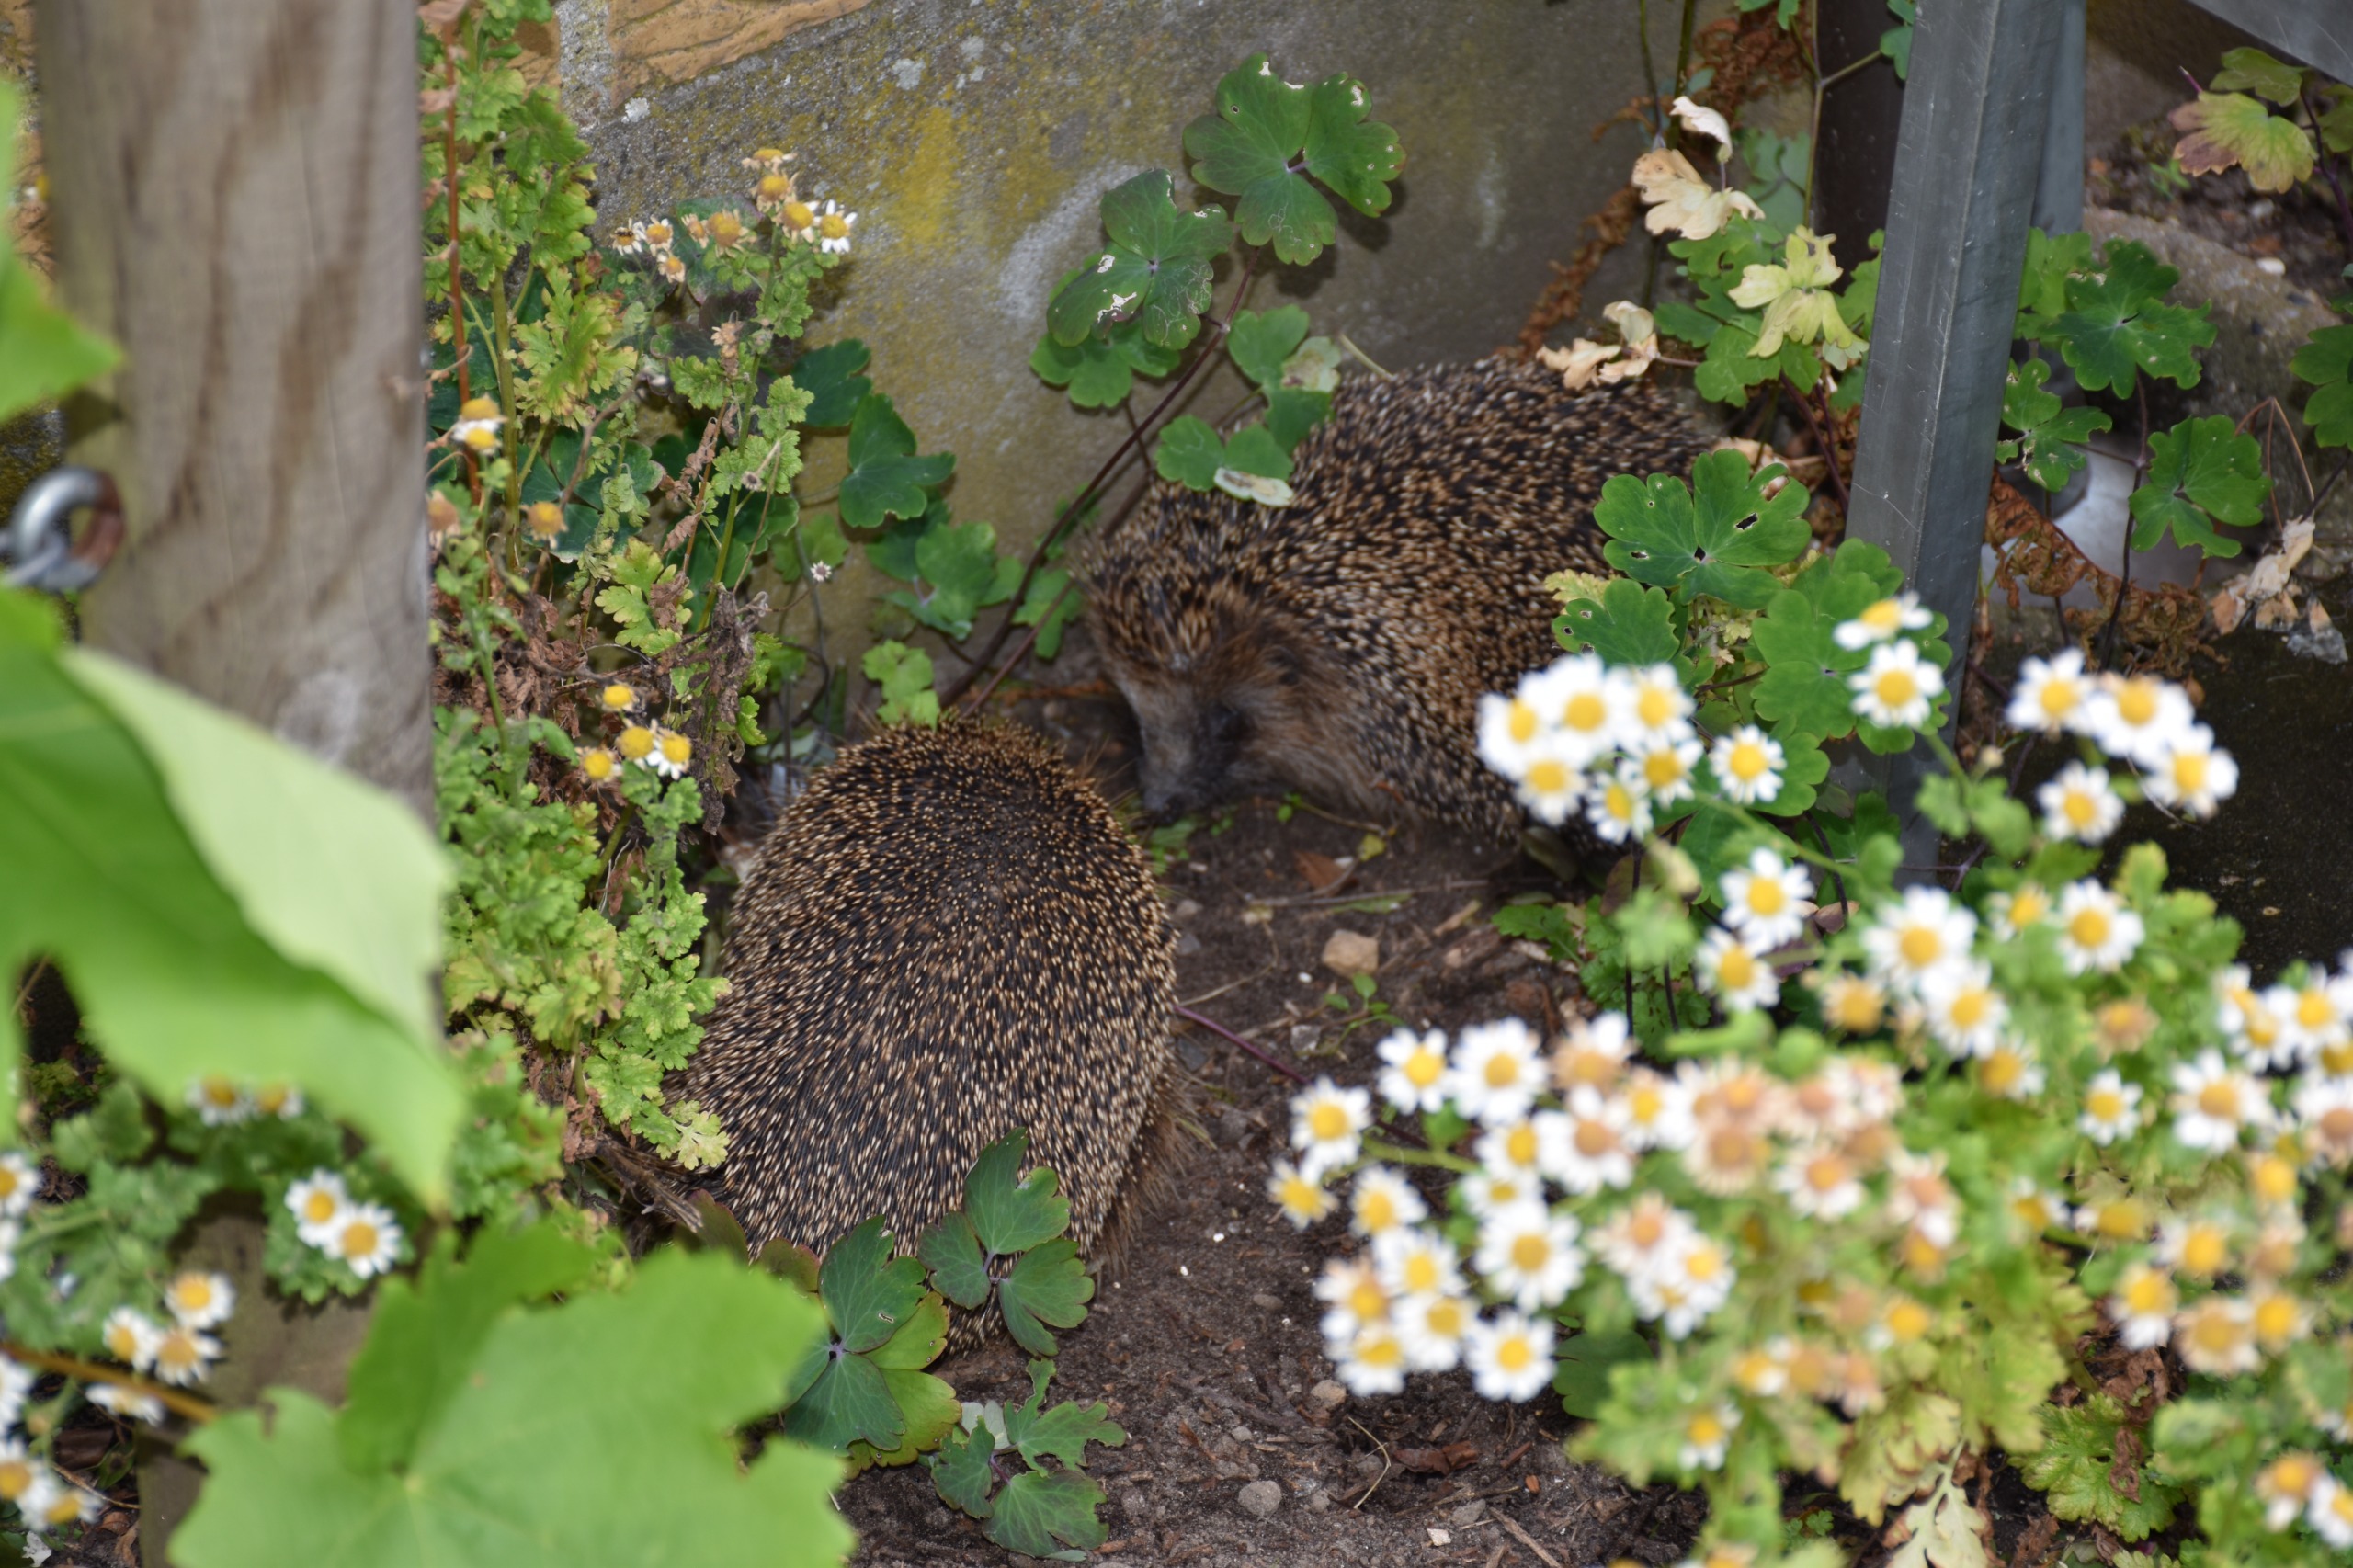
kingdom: Animalia
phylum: Chordata
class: Mammalia
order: Erinaceomorpha
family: Erinaceidae
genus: Erinaceus
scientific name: Erinaceus europaeus
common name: Pindsvin
